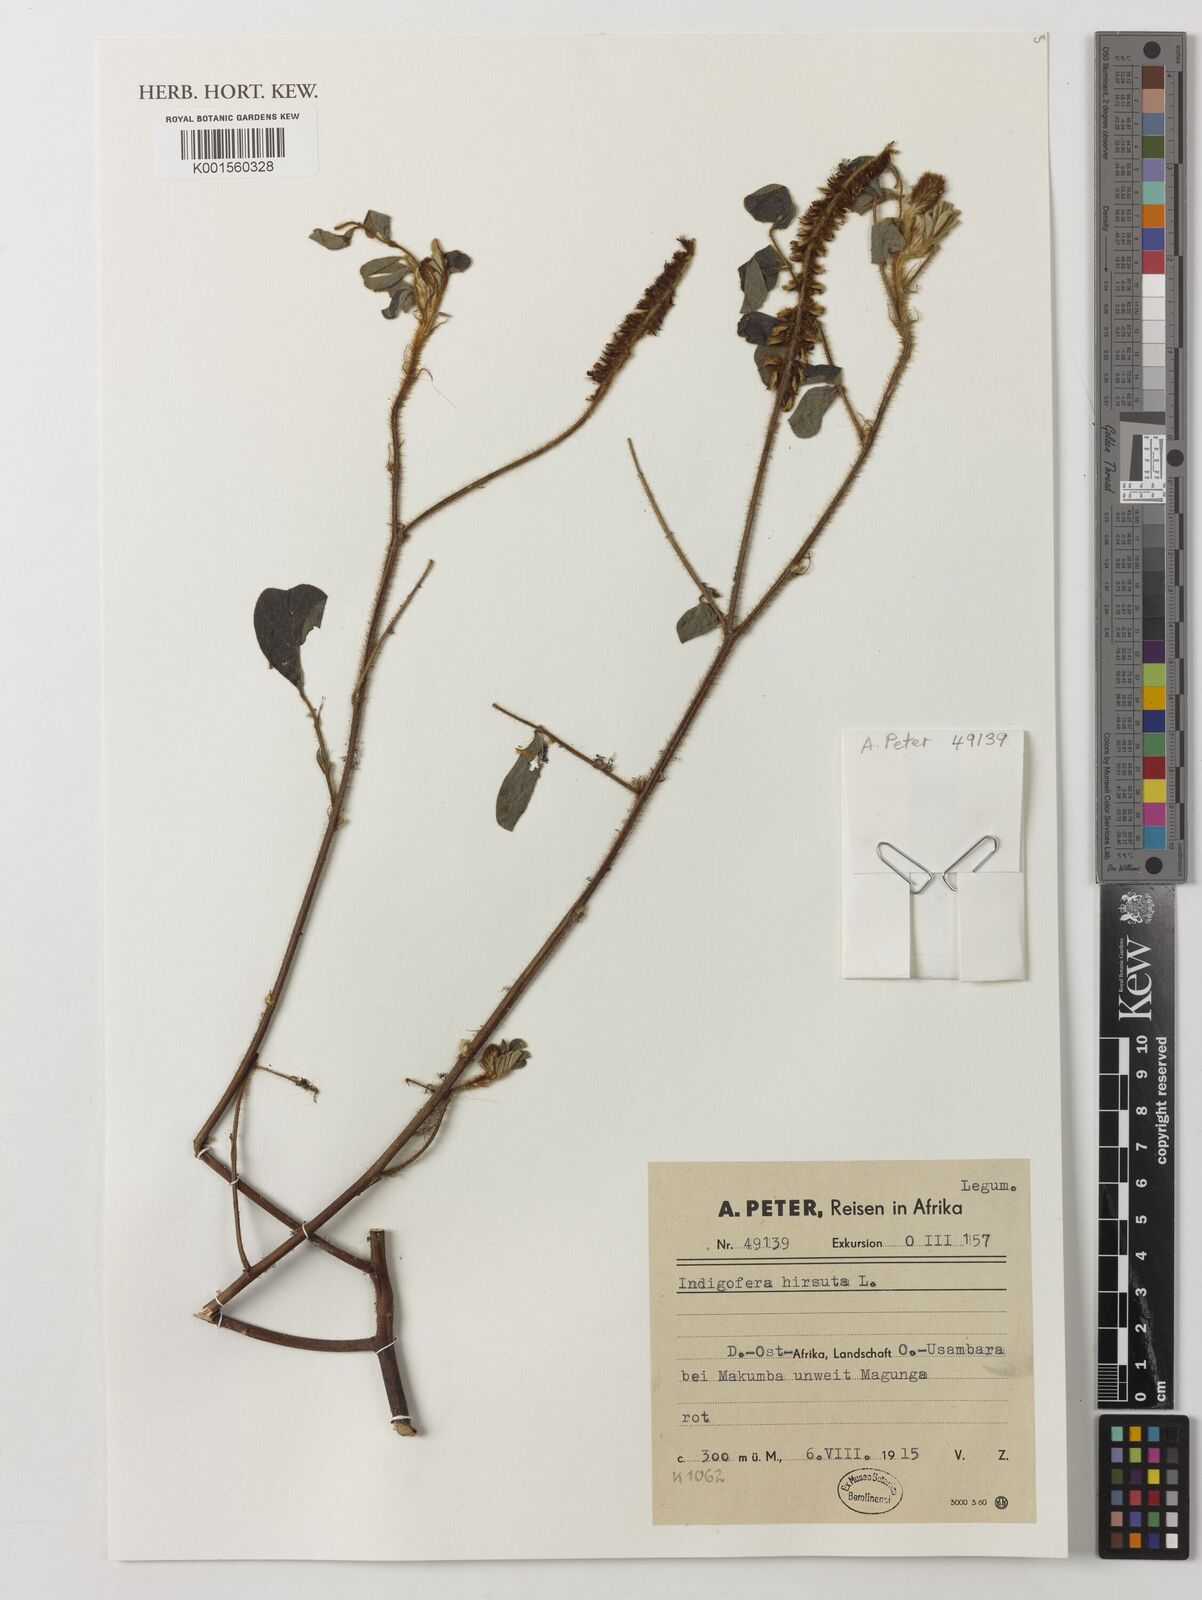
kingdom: Plantae
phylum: Tracheophyta
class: Magnoliopsida
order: Fabales
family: Fabaceae
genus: Indigofera
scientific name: Indigofera hirsuta
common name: Hairy indigo
